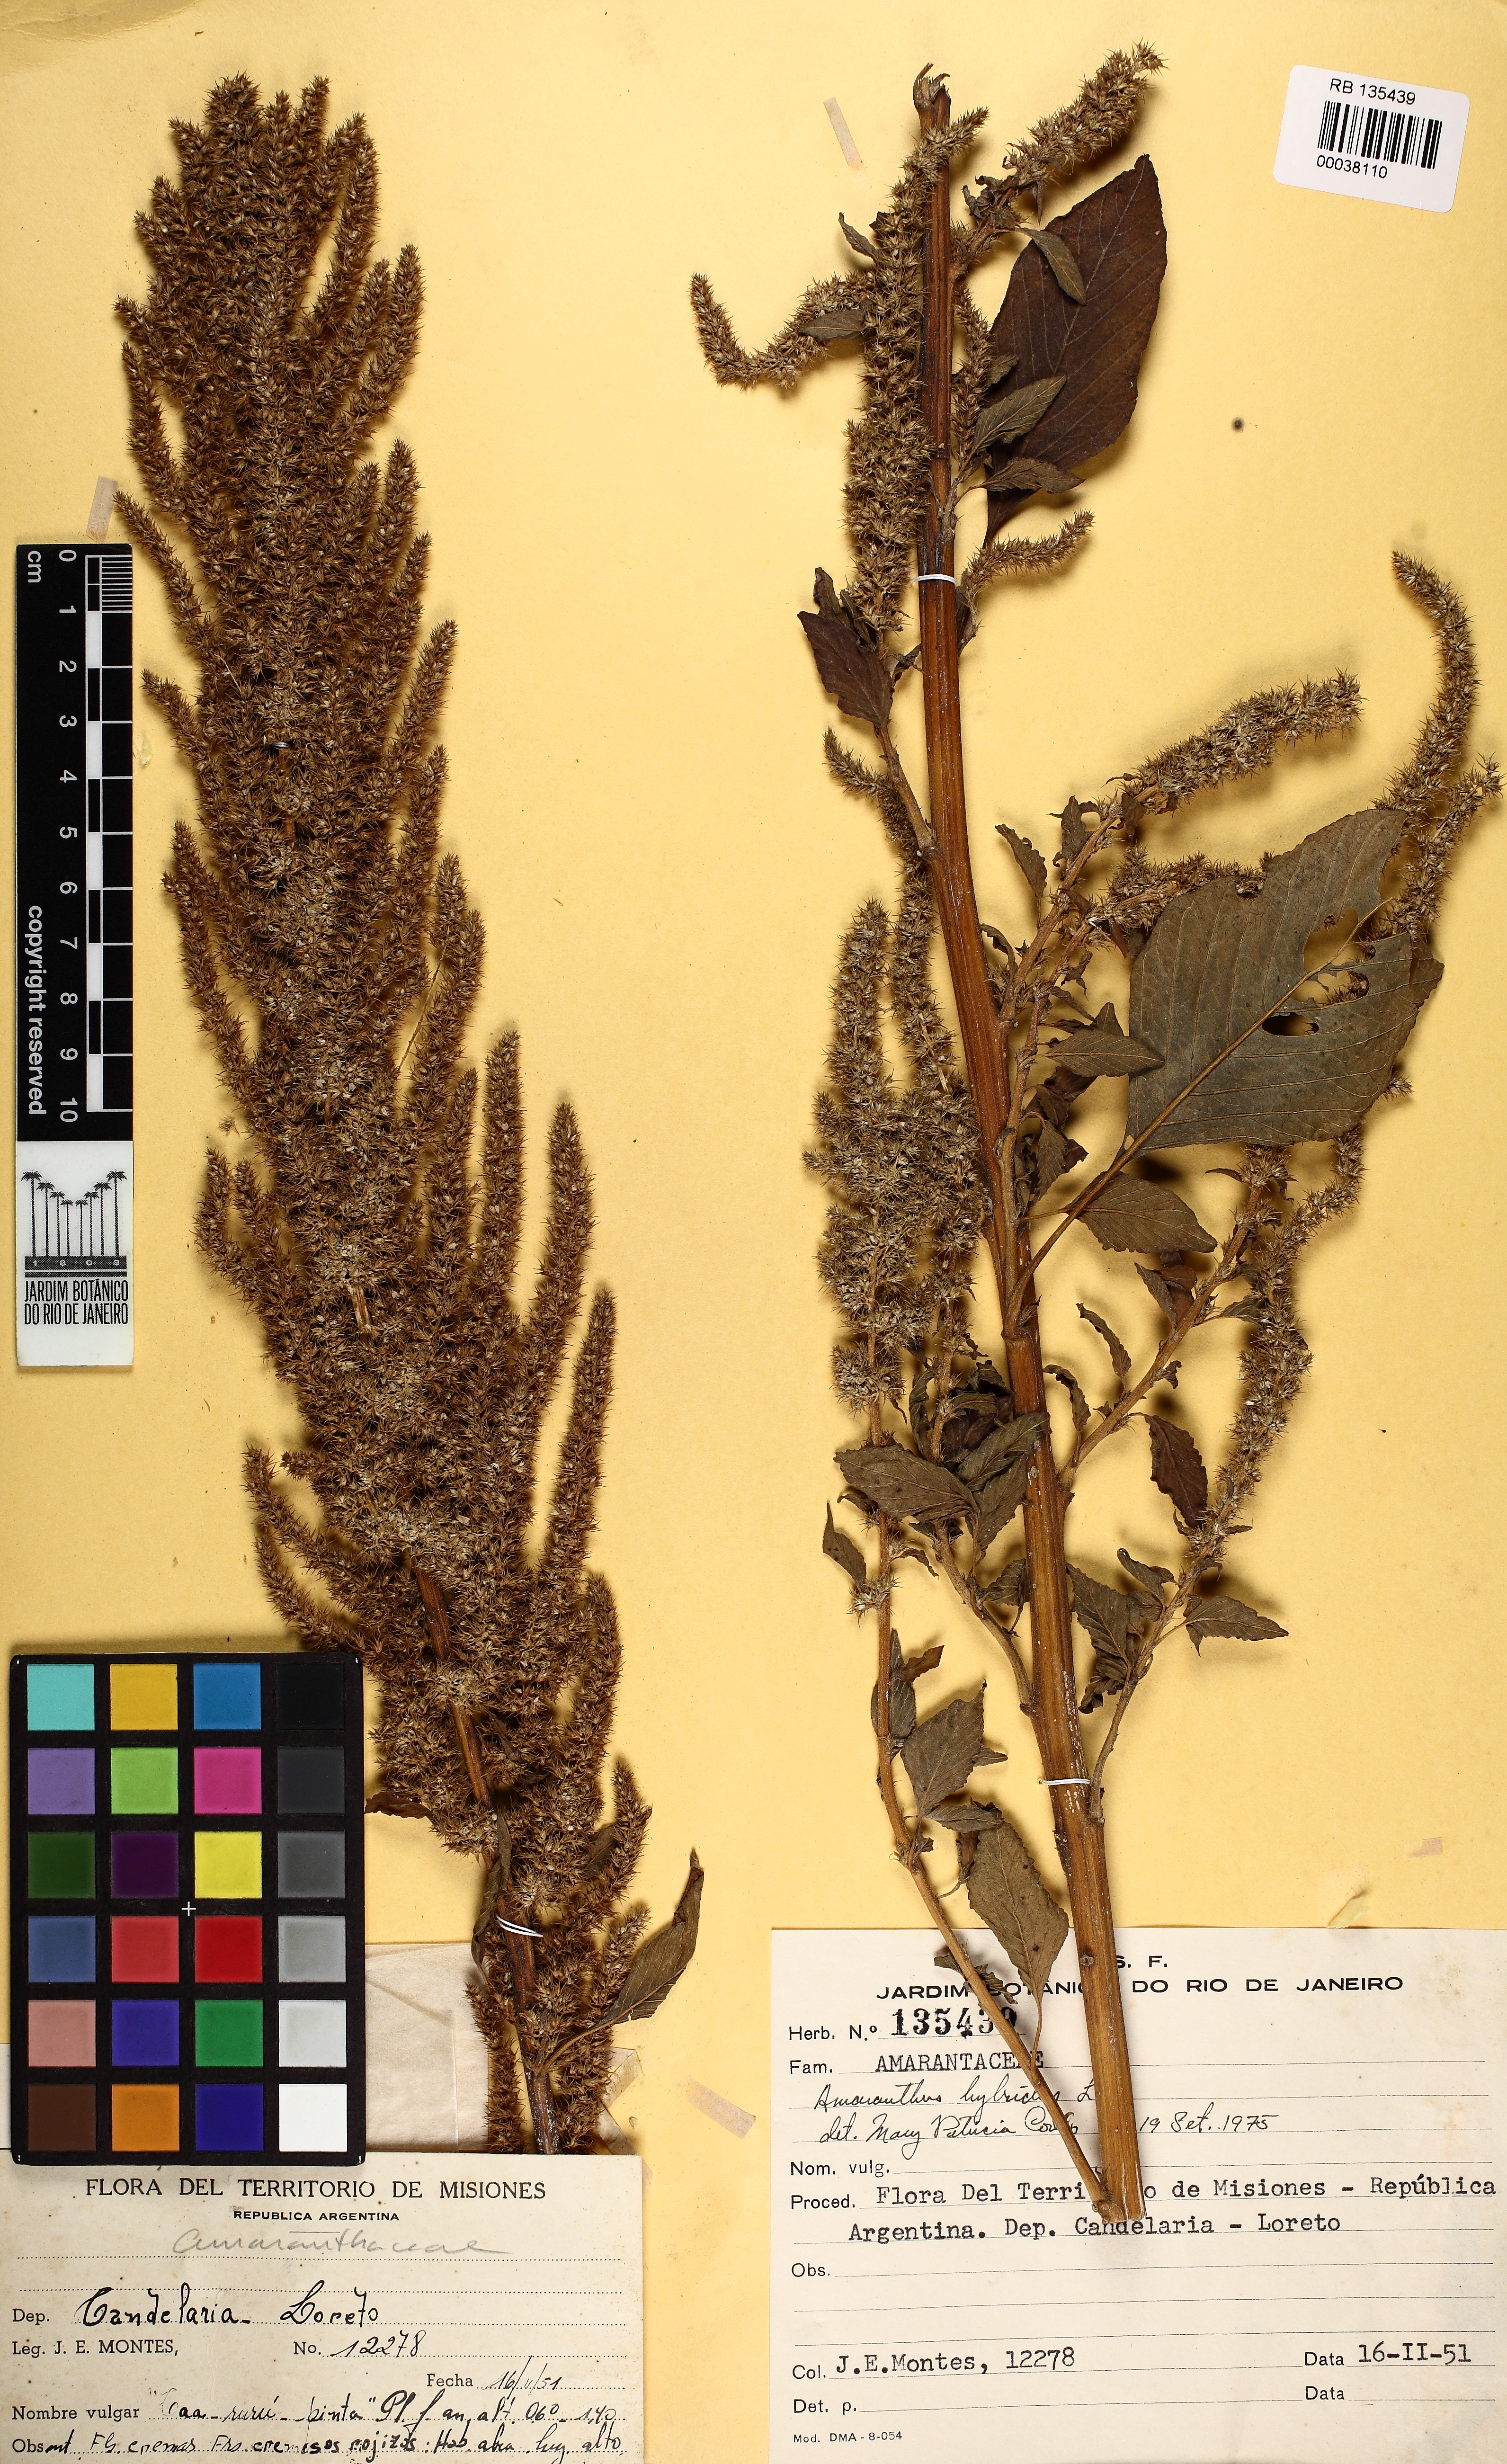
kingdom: Plantae
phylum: Tracheophyta
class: Magnoliopsida
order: Caryophyllales
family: Amaranthaceae
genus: Amaranthus
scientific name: Amaranthus hybridus
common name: Green amaranth
